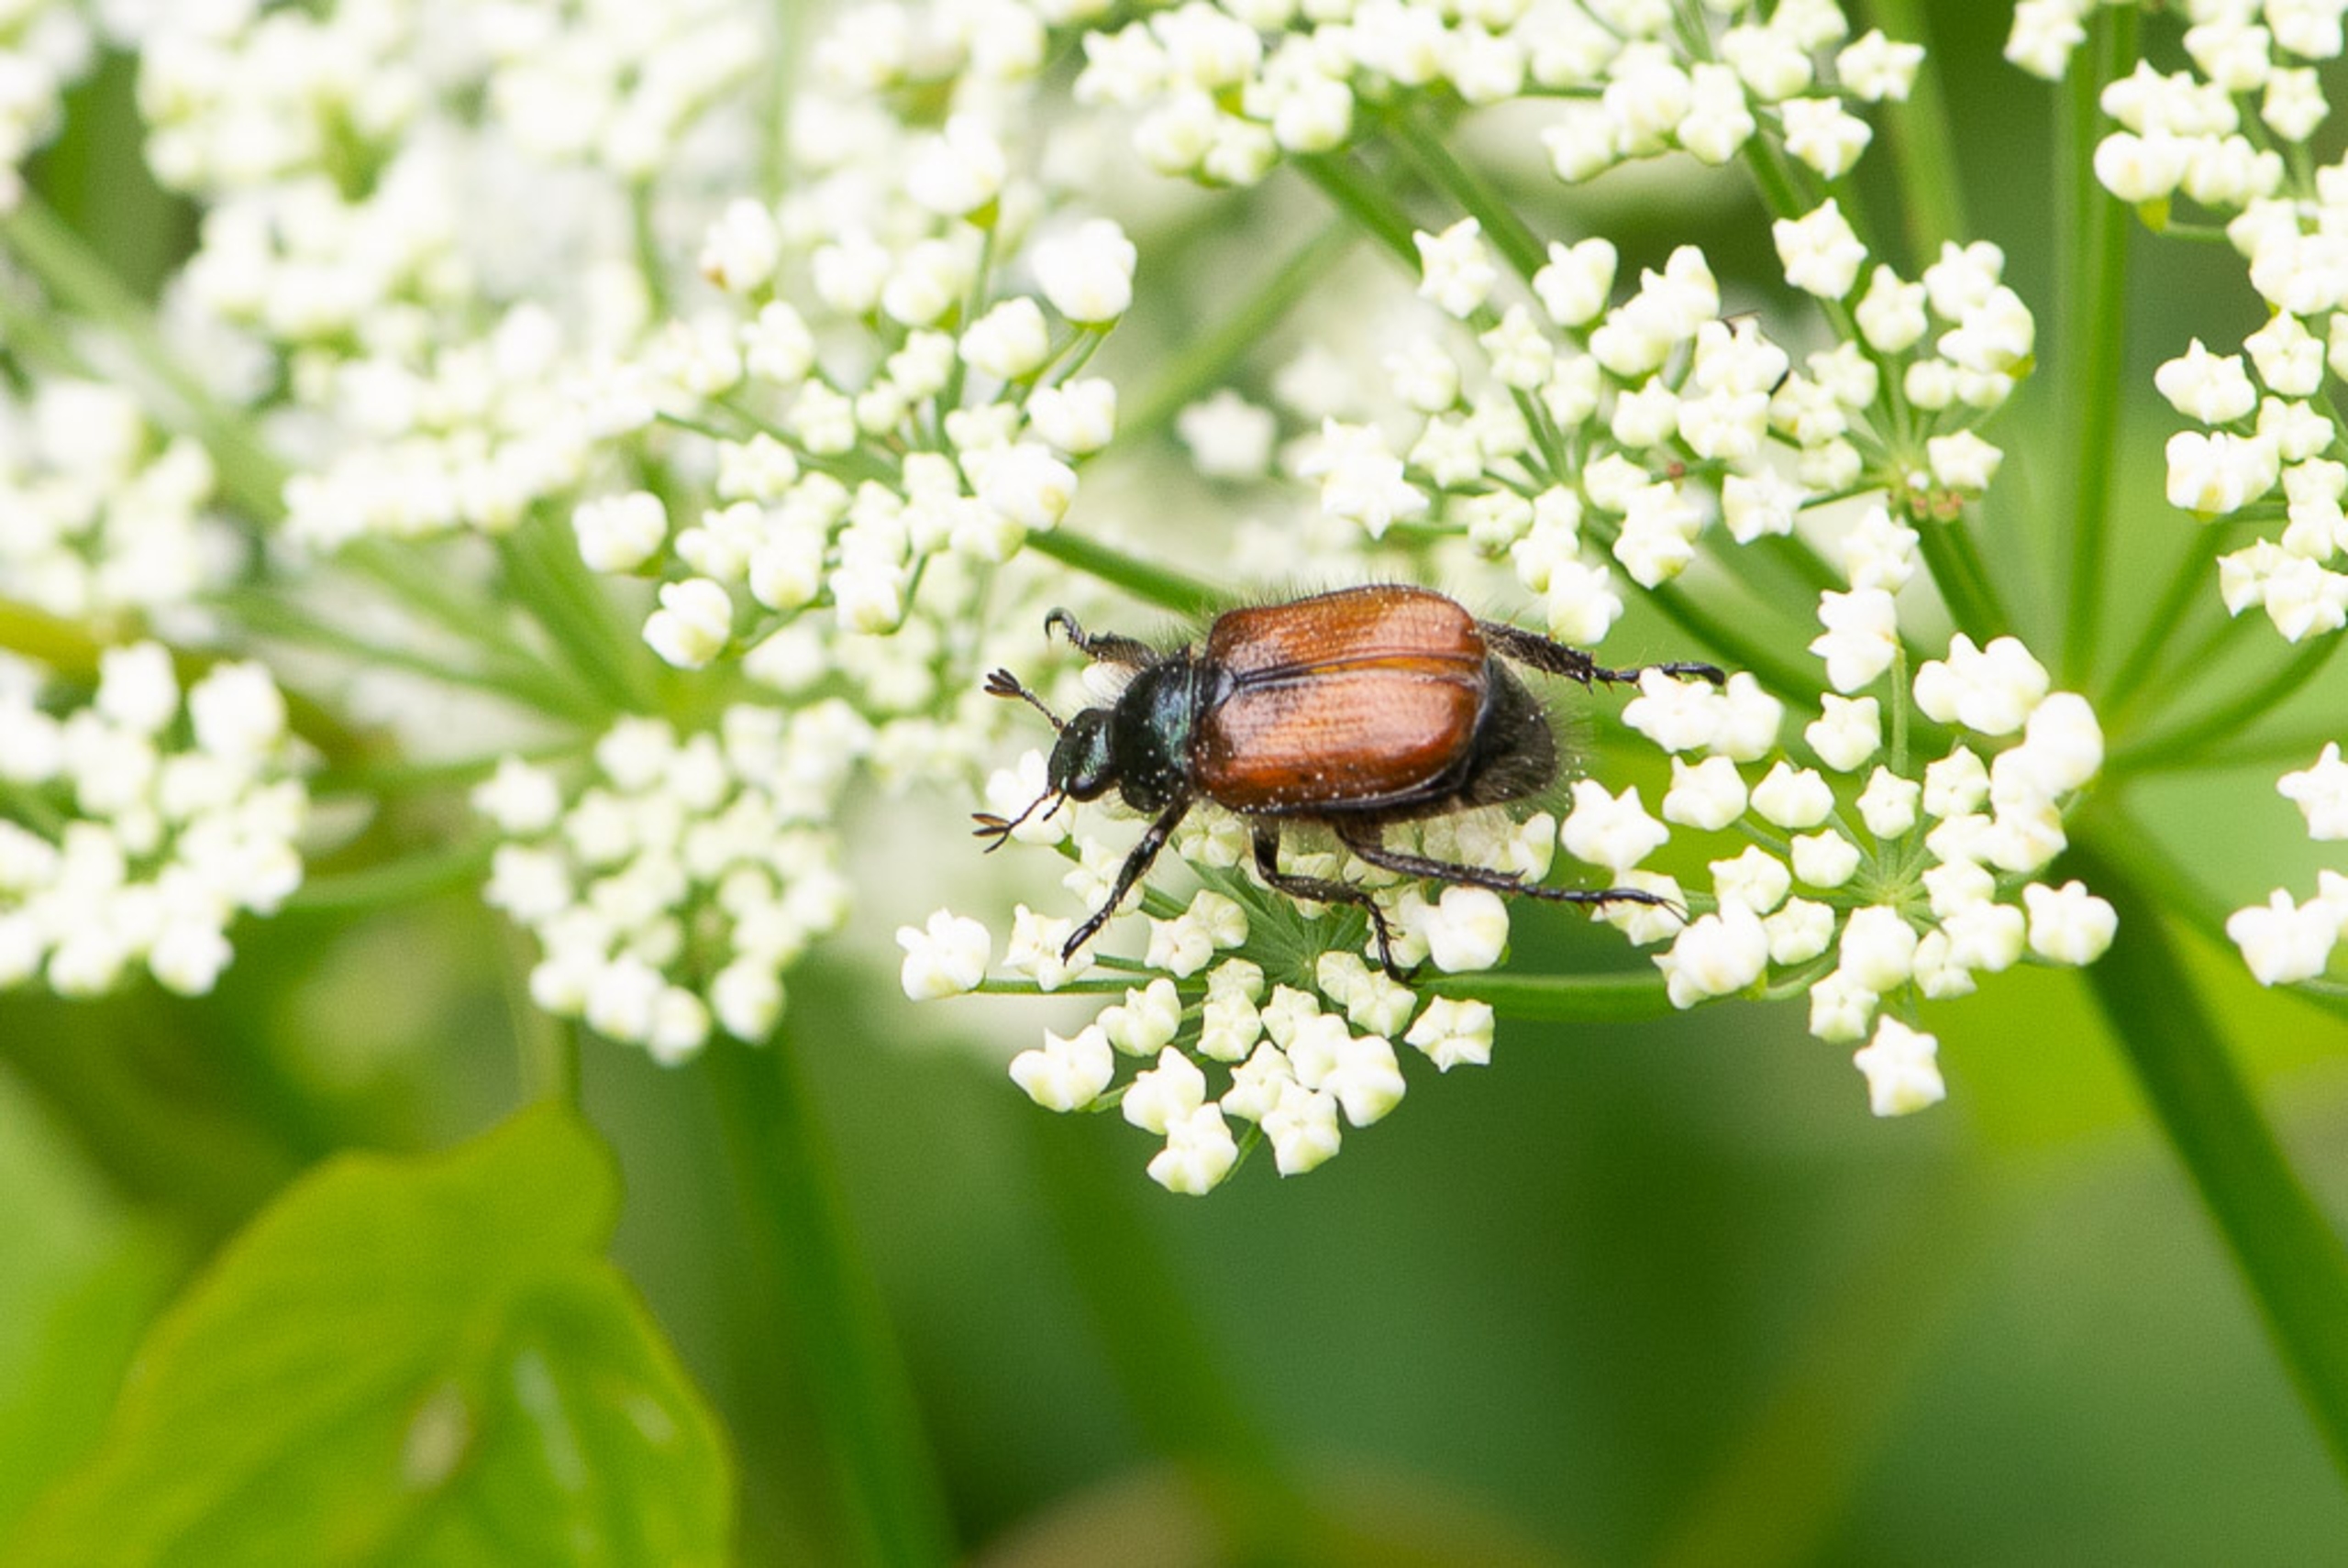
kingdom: Animalia
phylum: Arthropoda
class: Insecta
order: Coleoptera
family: Scarabaeidae
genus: Phyllopertha
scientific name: Phyllopertha horticola
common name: Gåsebille
